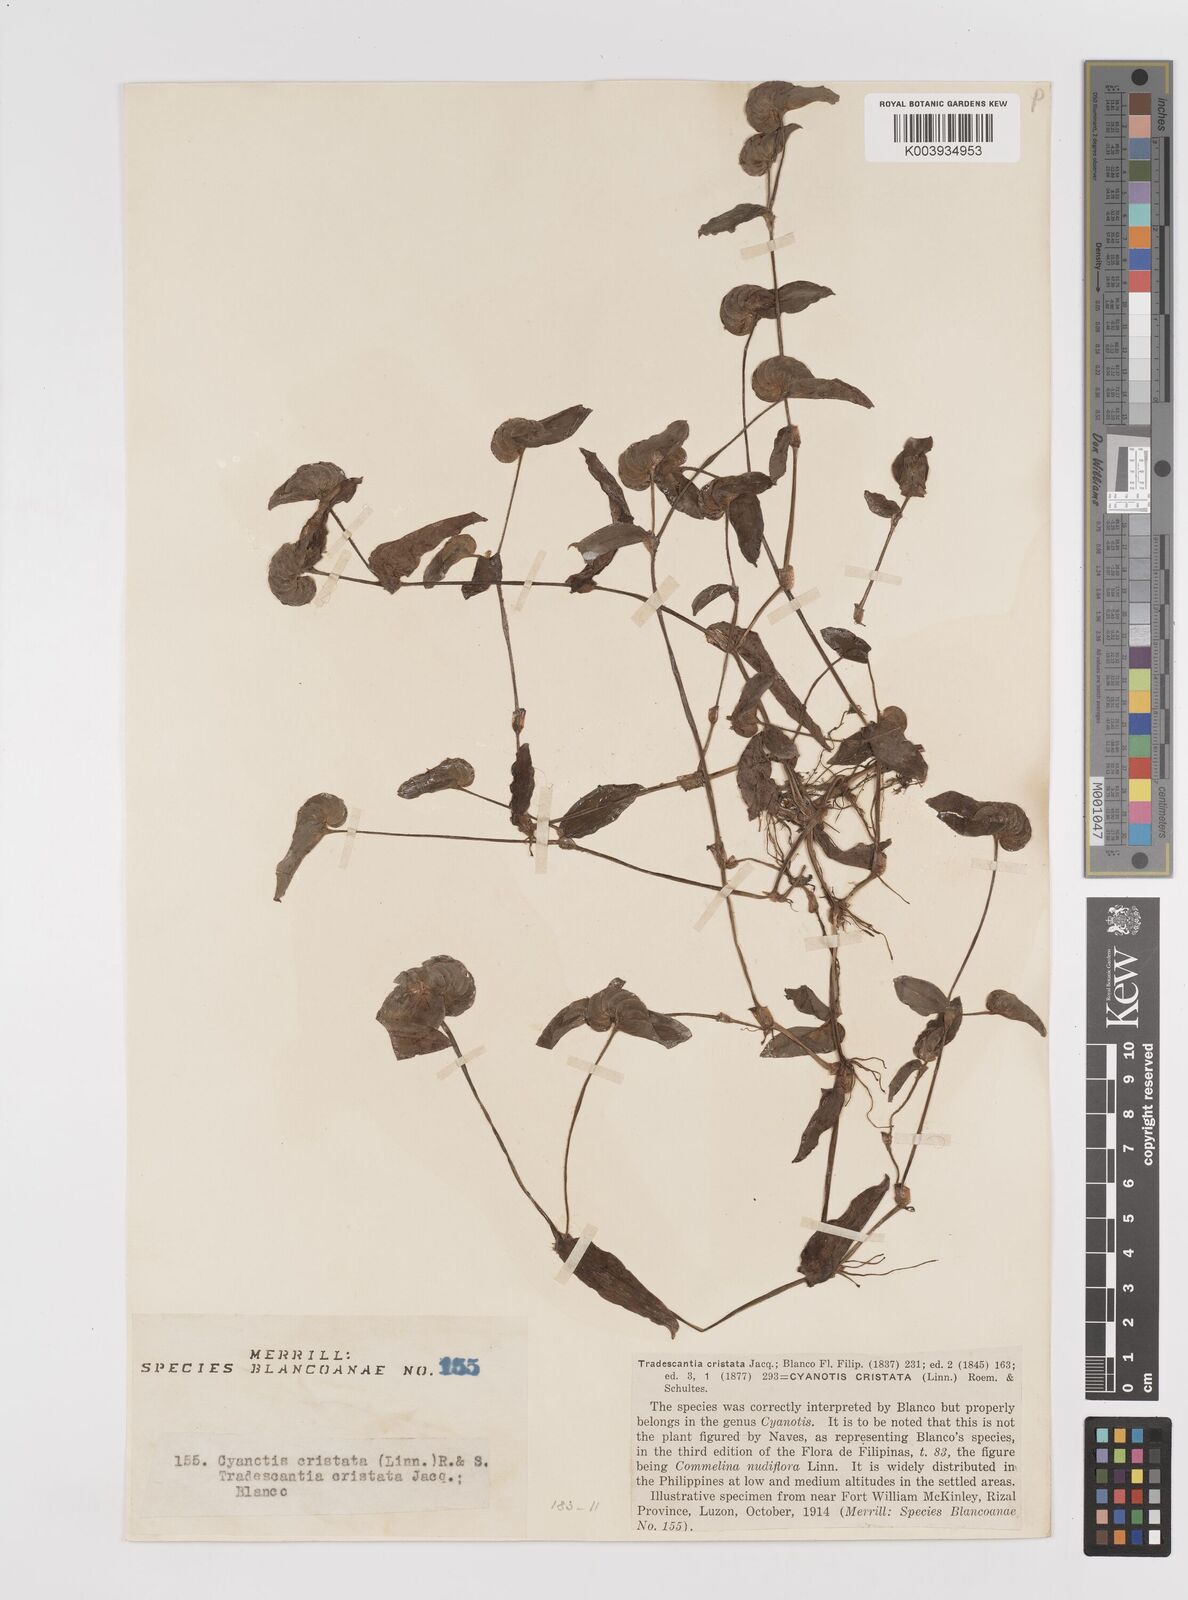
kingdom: Plantae
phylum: Tracheophyta
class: Liliopsida
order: Commelinales
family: Commelinaceae
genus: Cyanotis
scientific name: Cyanotis cristata
